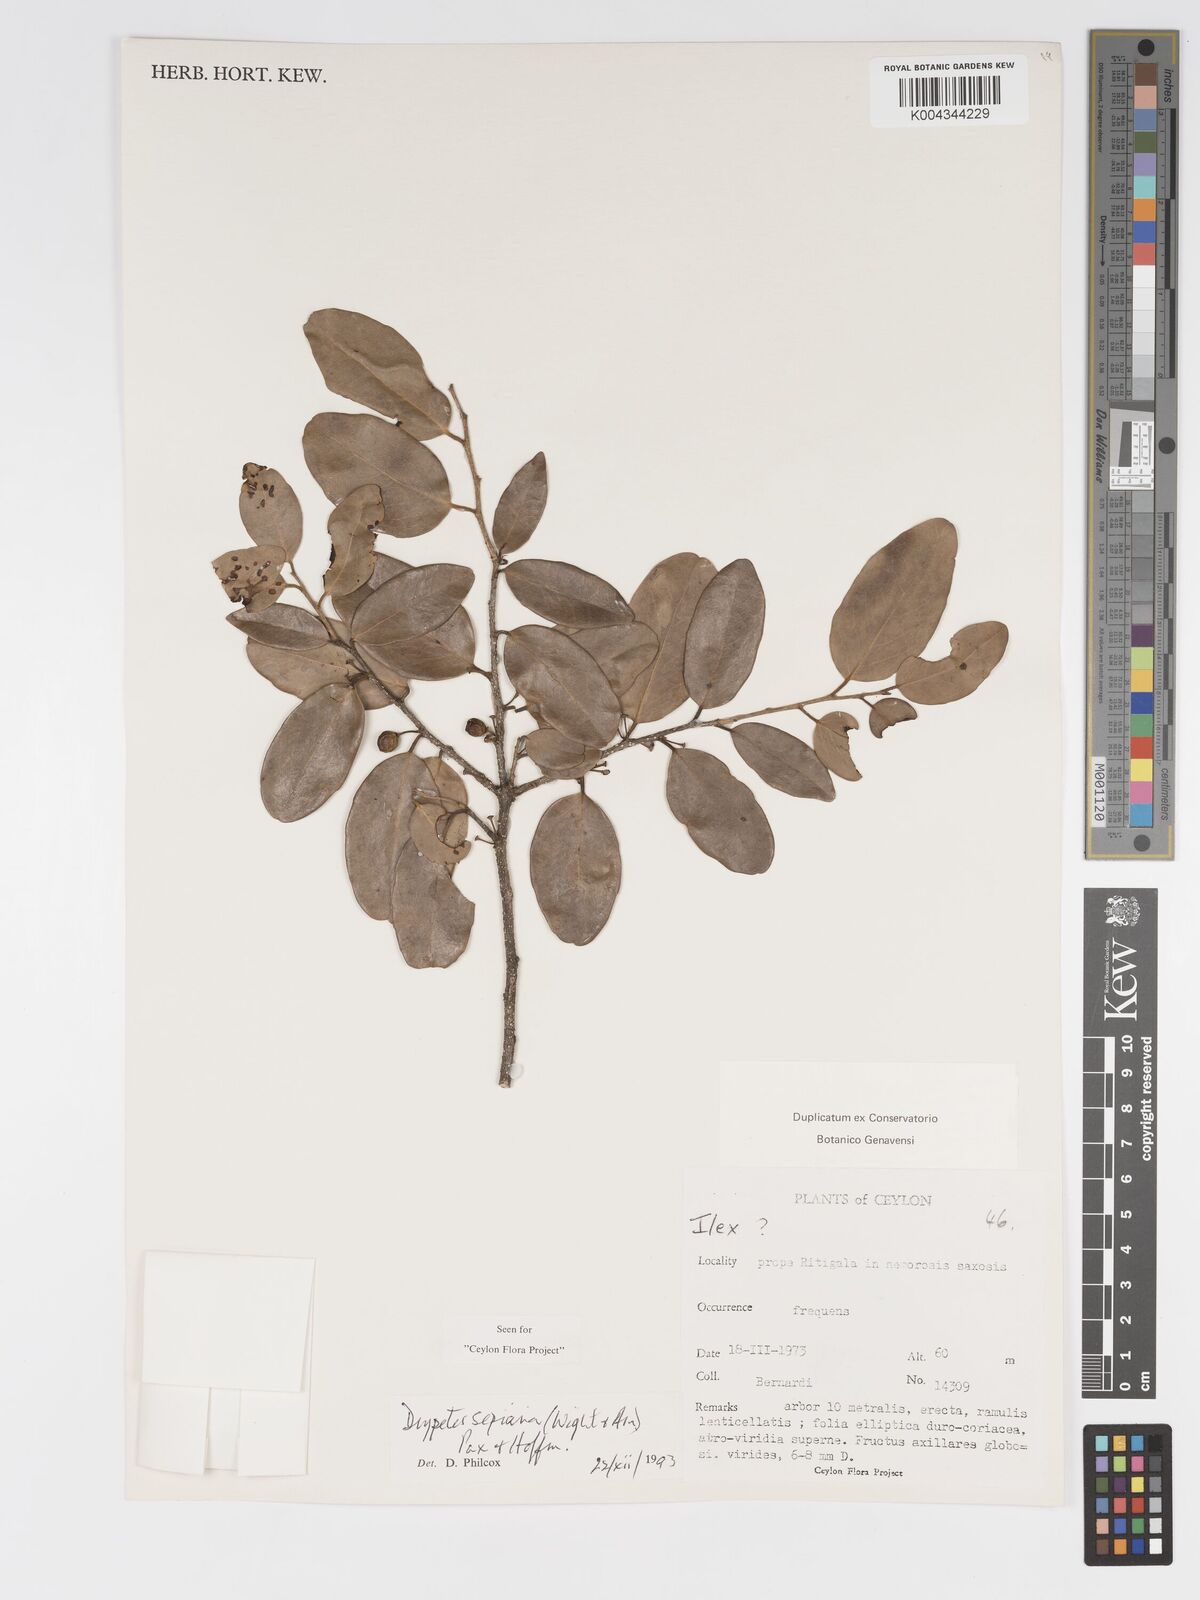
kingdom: Plantae
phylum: Tracheophyta
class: Magnoliopsida
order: Malpighiales
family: Putranjivaceae
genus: Drypetes
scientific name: Drypetes sepiaria
